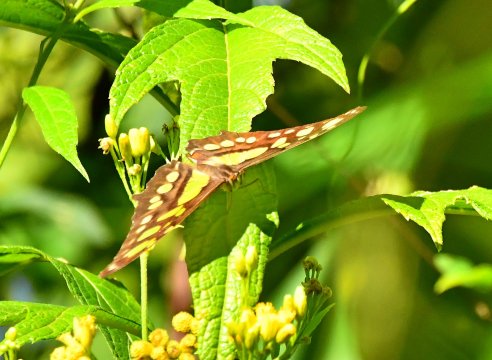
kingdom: Animalia
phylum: Arthropoda
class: Insecta
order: Lepidoptera
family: Nymphalidae
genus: Siproeta
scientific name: Siproeta stelenes
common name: Malachite
